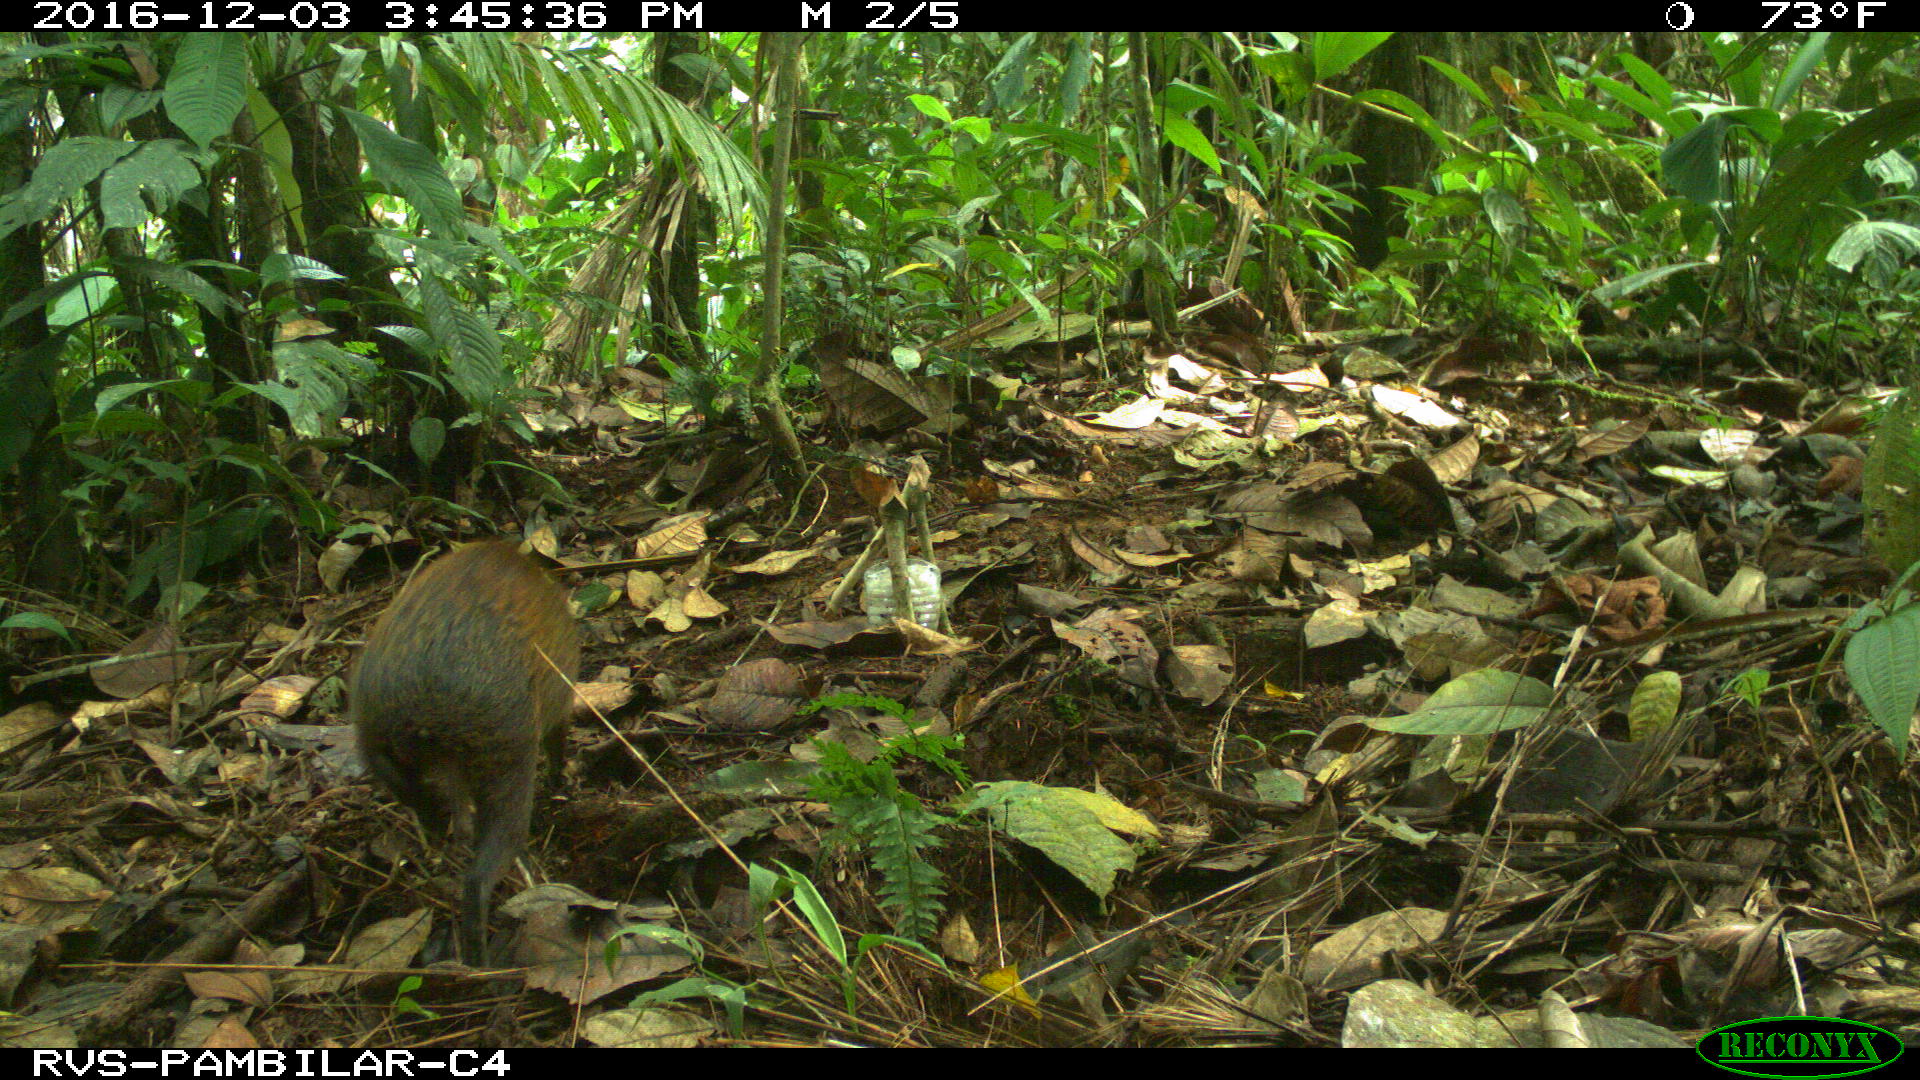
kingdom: Animalia
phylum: Chordata
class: Mammalia
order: Rodentia
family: Dasyproctidae
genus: Dasyprocta
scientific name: Dasyprocta punctata
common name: Central american agouti
